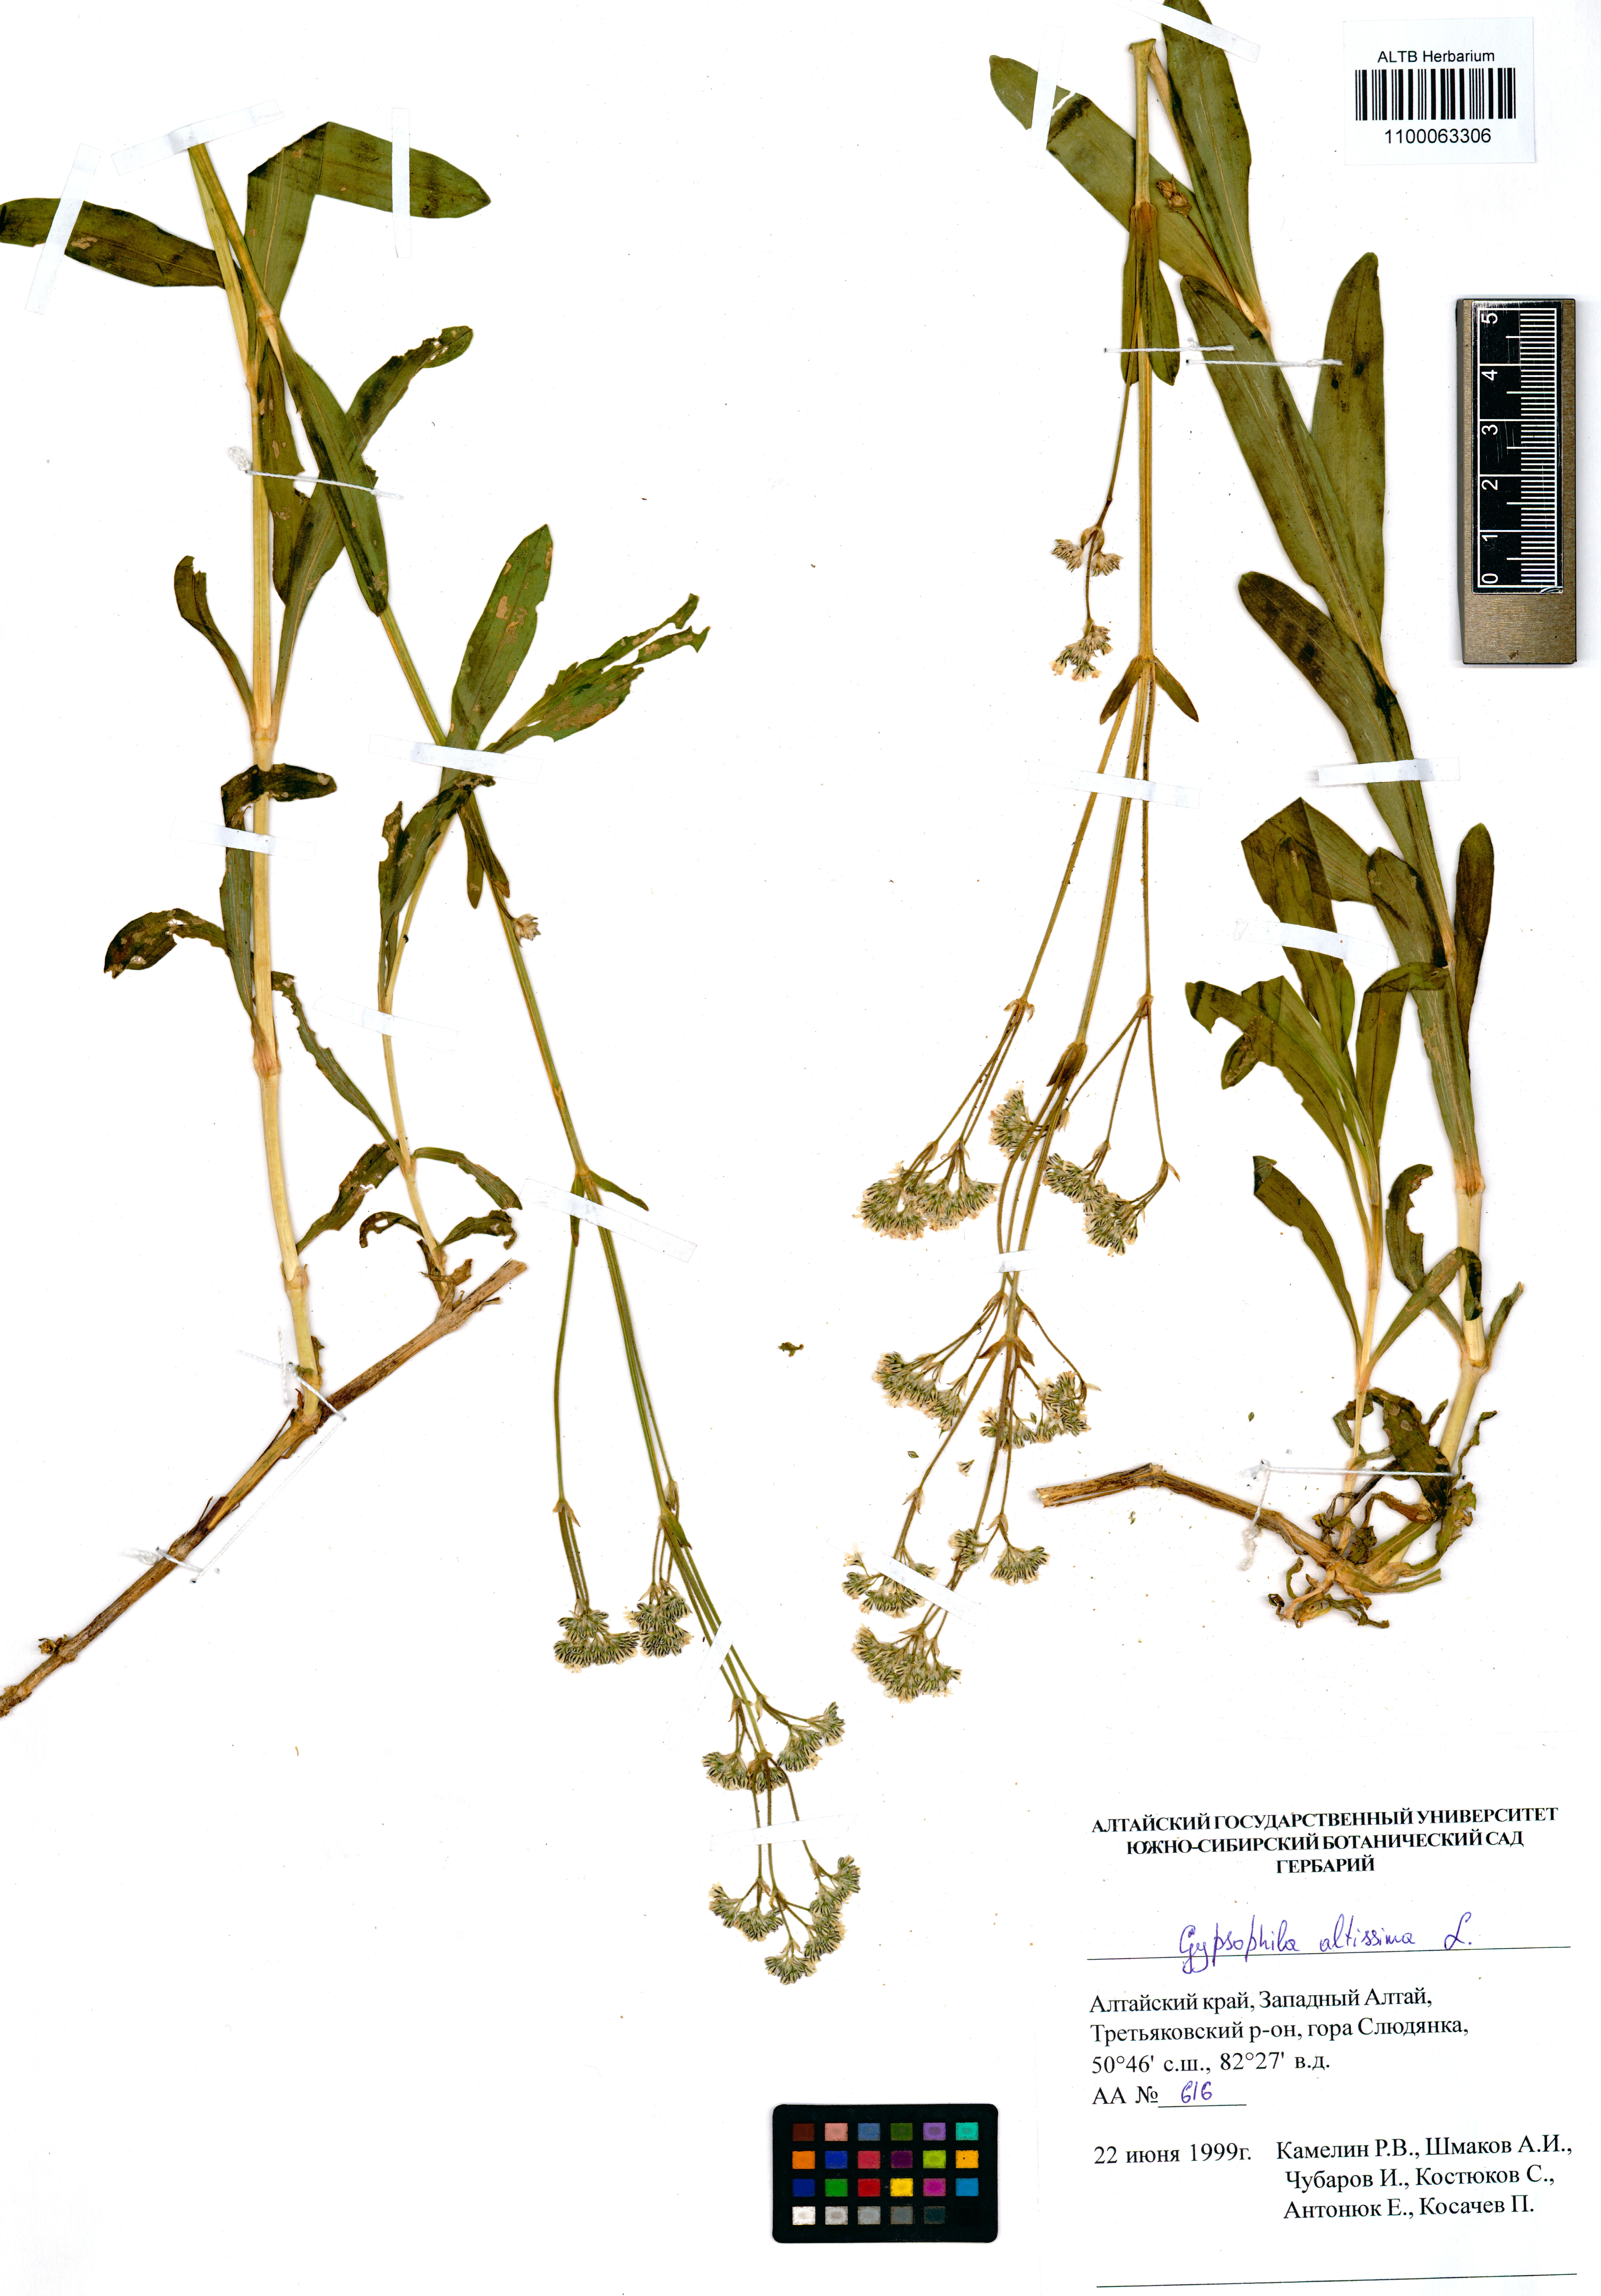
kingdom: Plantae
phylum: Tracheophyta
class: Magnoliopsida
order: Caryophyllales
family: Caryophyllaceae
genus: Gypsophila
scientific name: Gypsophila altissima
